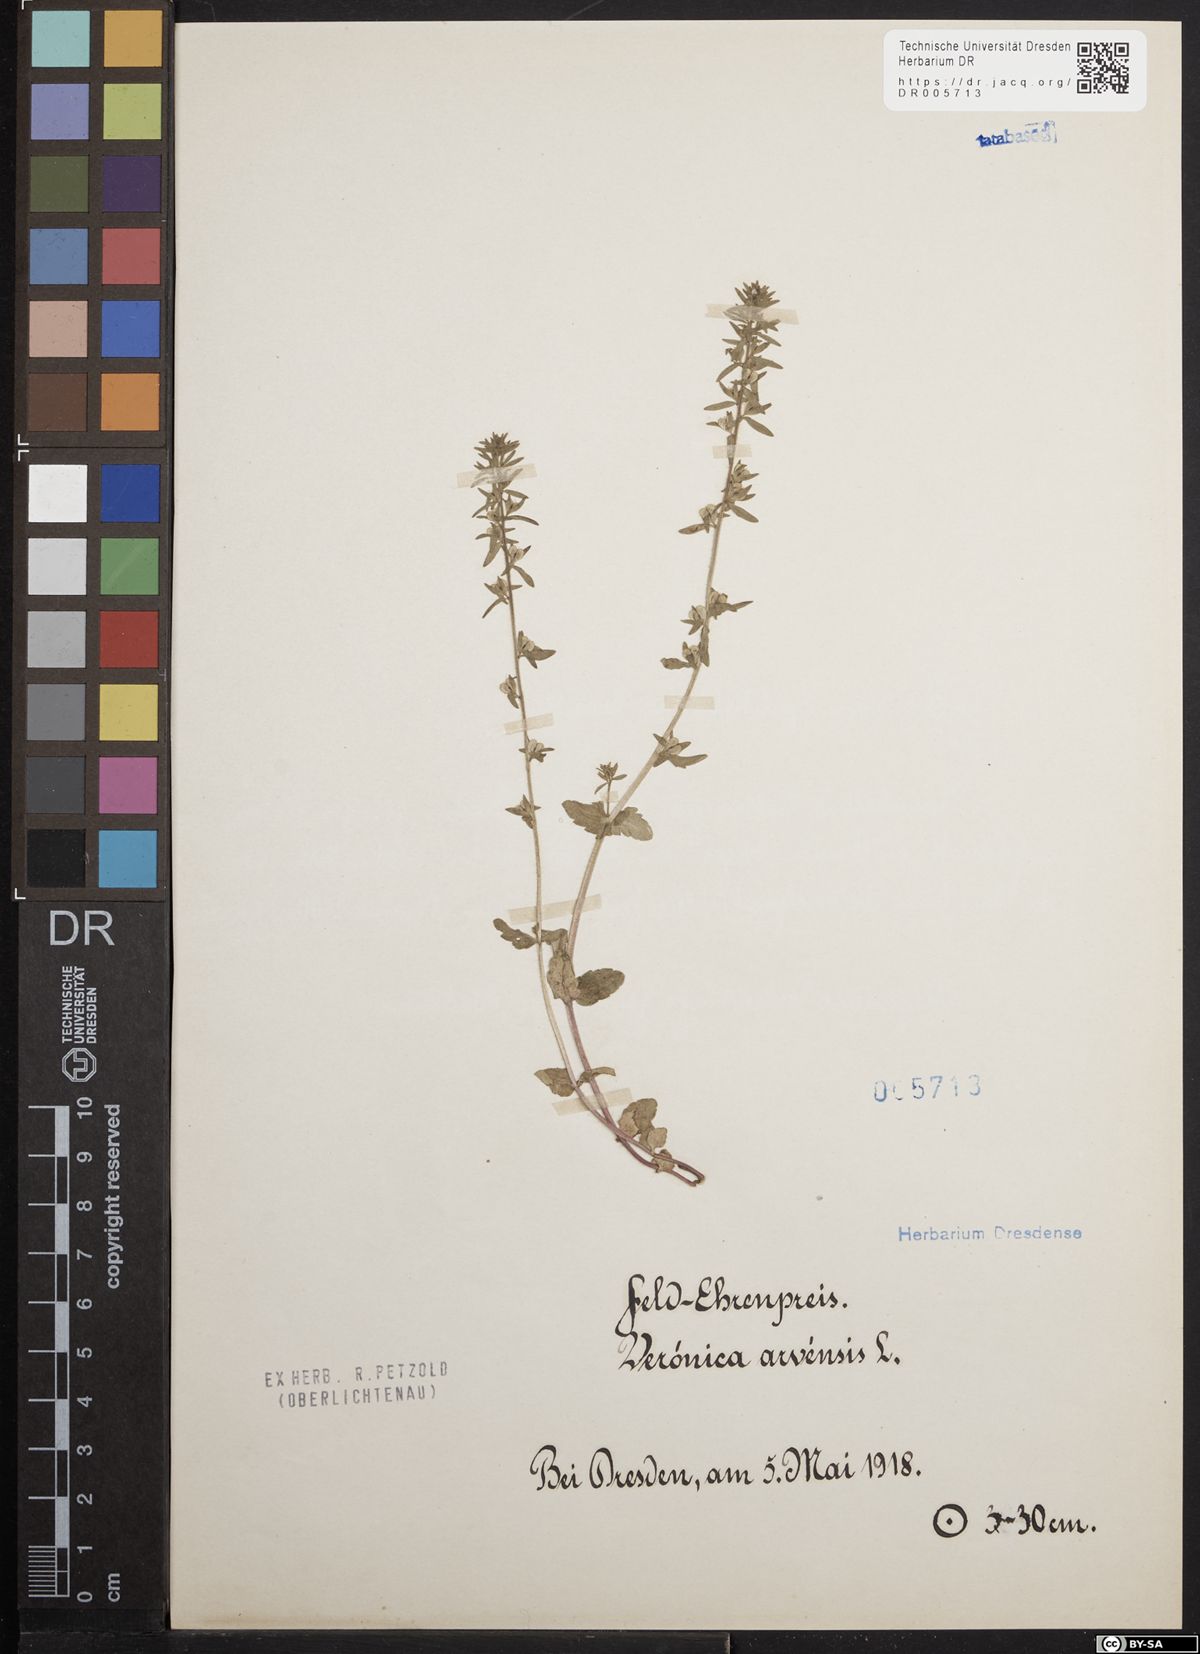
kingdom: Plantae
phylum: Tracheophyta
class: Magnoliopsida
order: Lamiales
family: Plantaginaceae
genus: Veronica
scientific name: Veronica arvensis
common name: Corn speedwell
